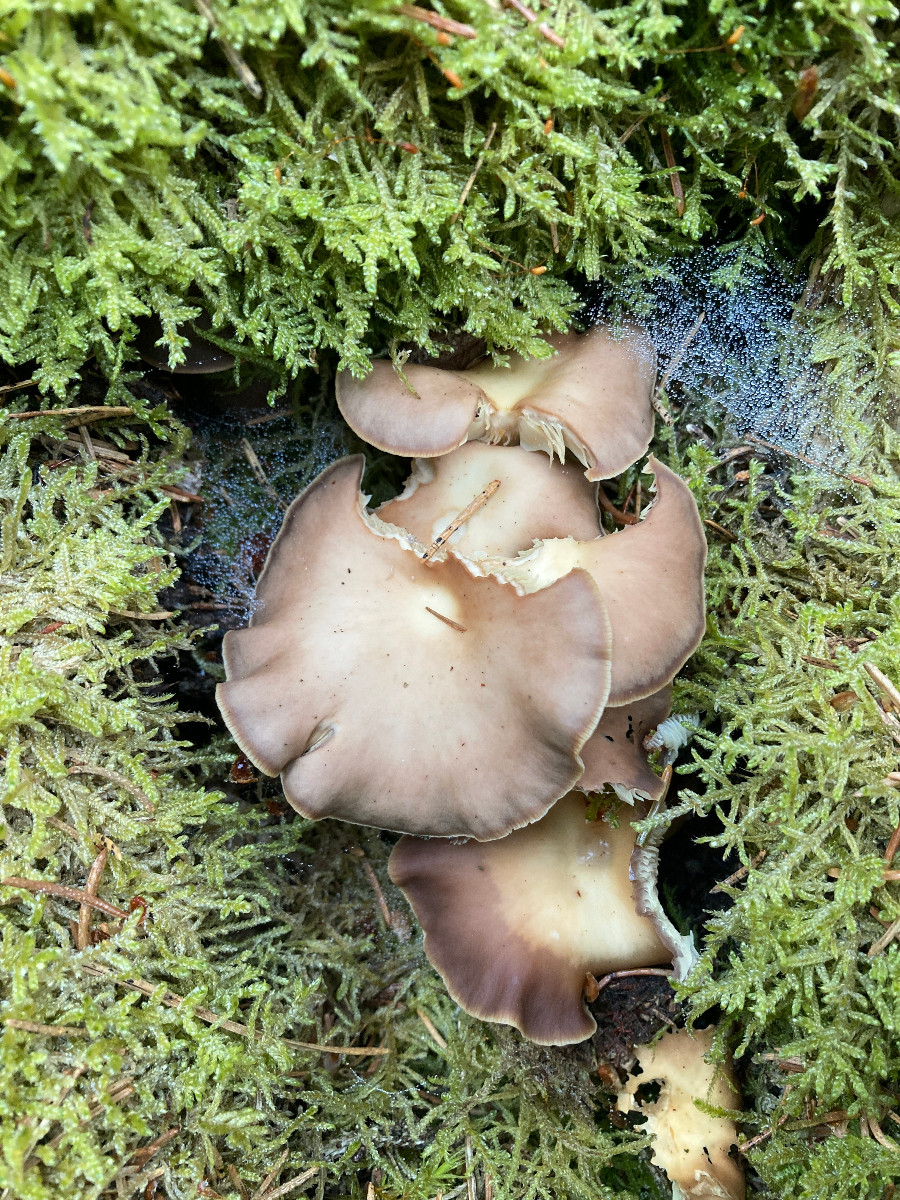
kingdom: Fungi
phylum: Basidiomycota
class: Agaricomycetes
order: Agaricales
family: Omphalotaceae
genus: Gymnopus
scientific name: Gymnopus
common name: fladhat
